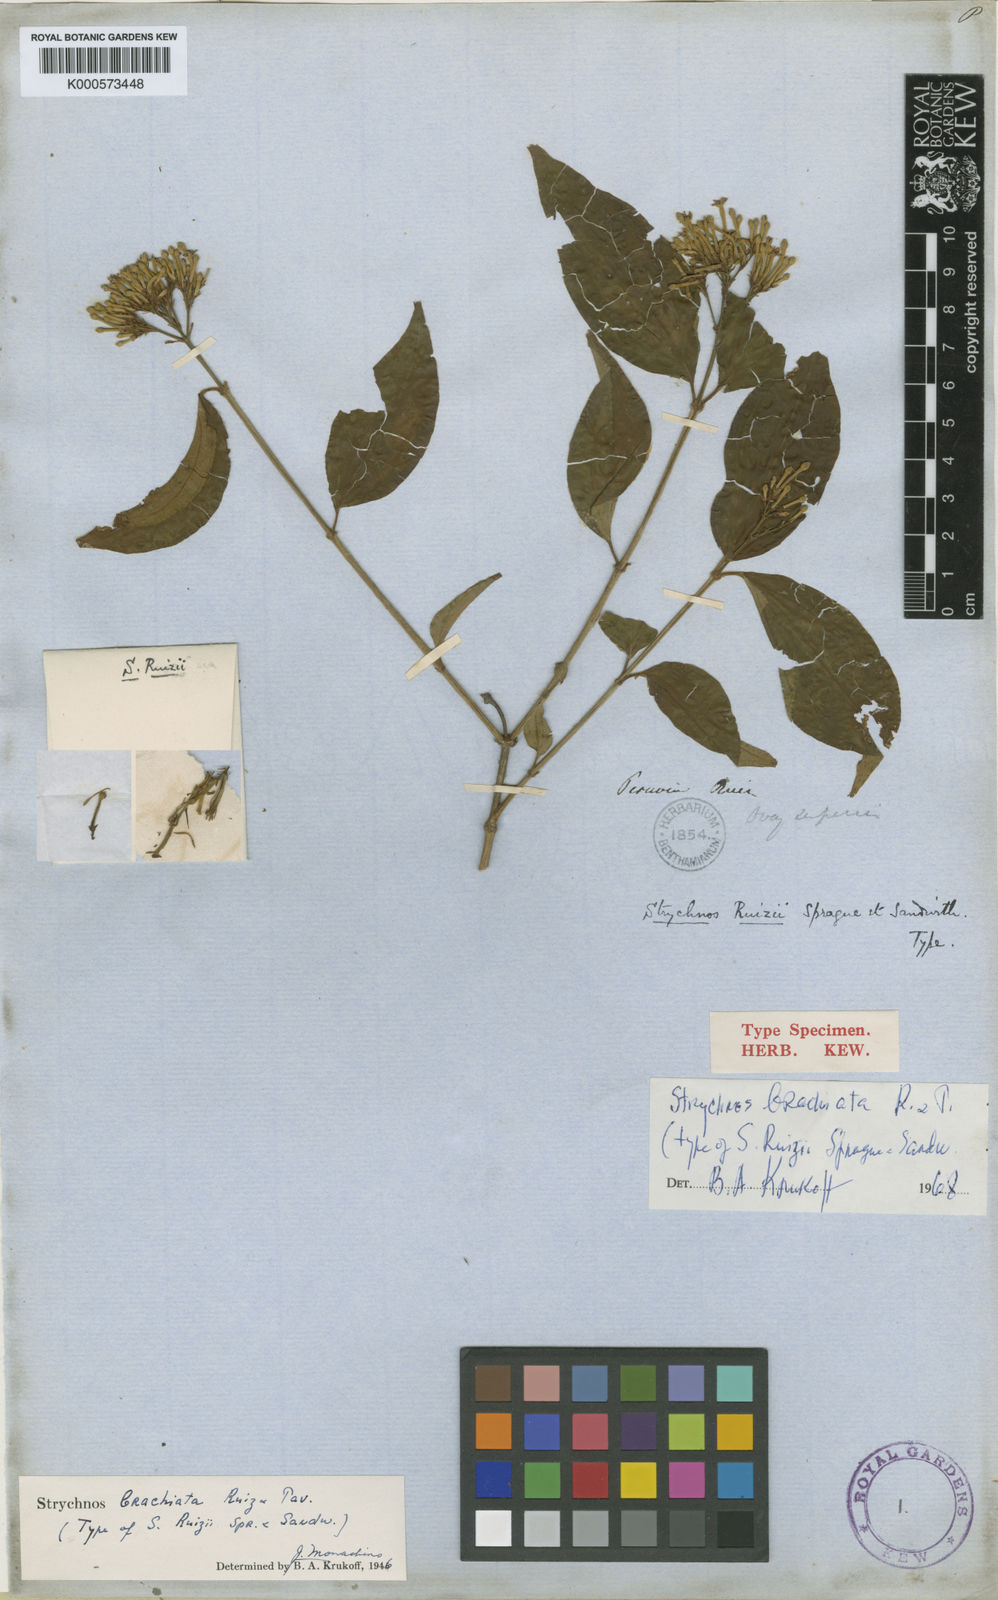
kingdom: Plantae
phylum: Tracheophyta
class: Magnoliopsida
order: Gentianales
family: Loganiaceae
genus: Strychnos
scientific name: Strychnos brachiata
